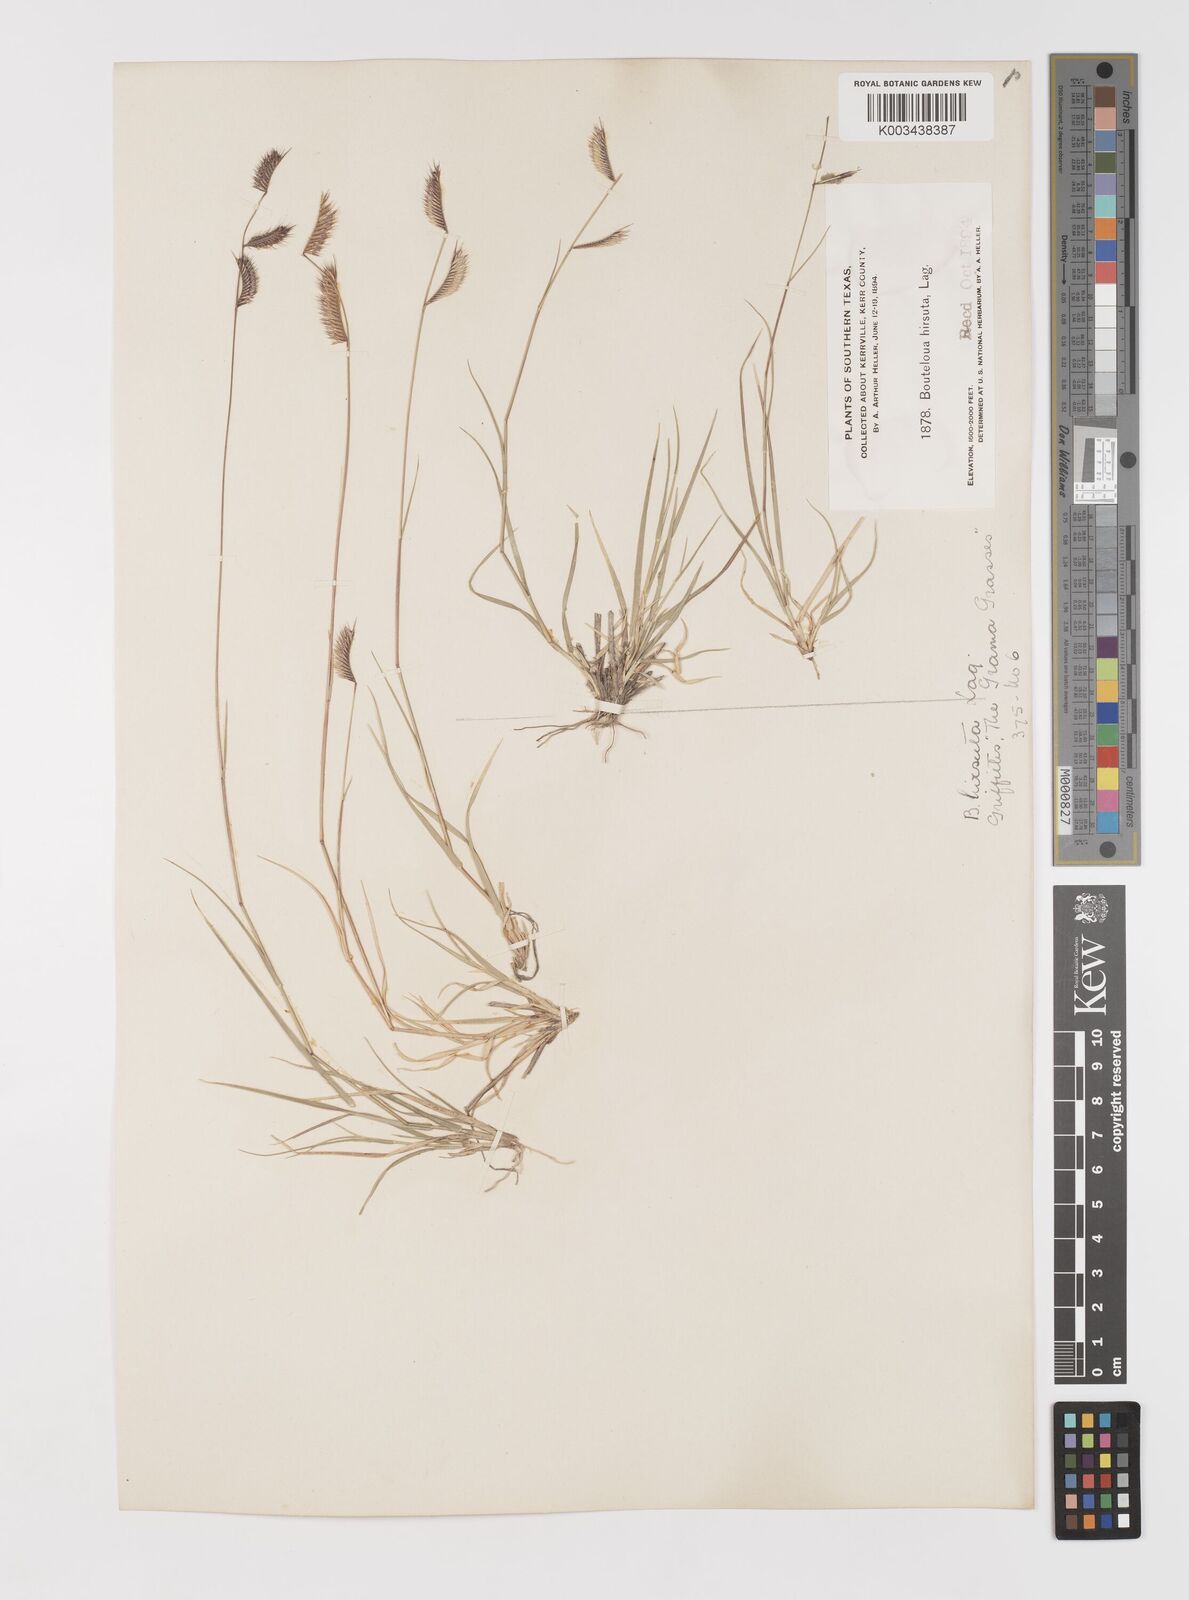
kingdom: Plantae
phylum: Tracheophyta
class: Liliopsida
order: Poales
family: Poaceae
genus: Bouteloua
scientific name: Bouteloua hirsuta
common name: Hairy grama
